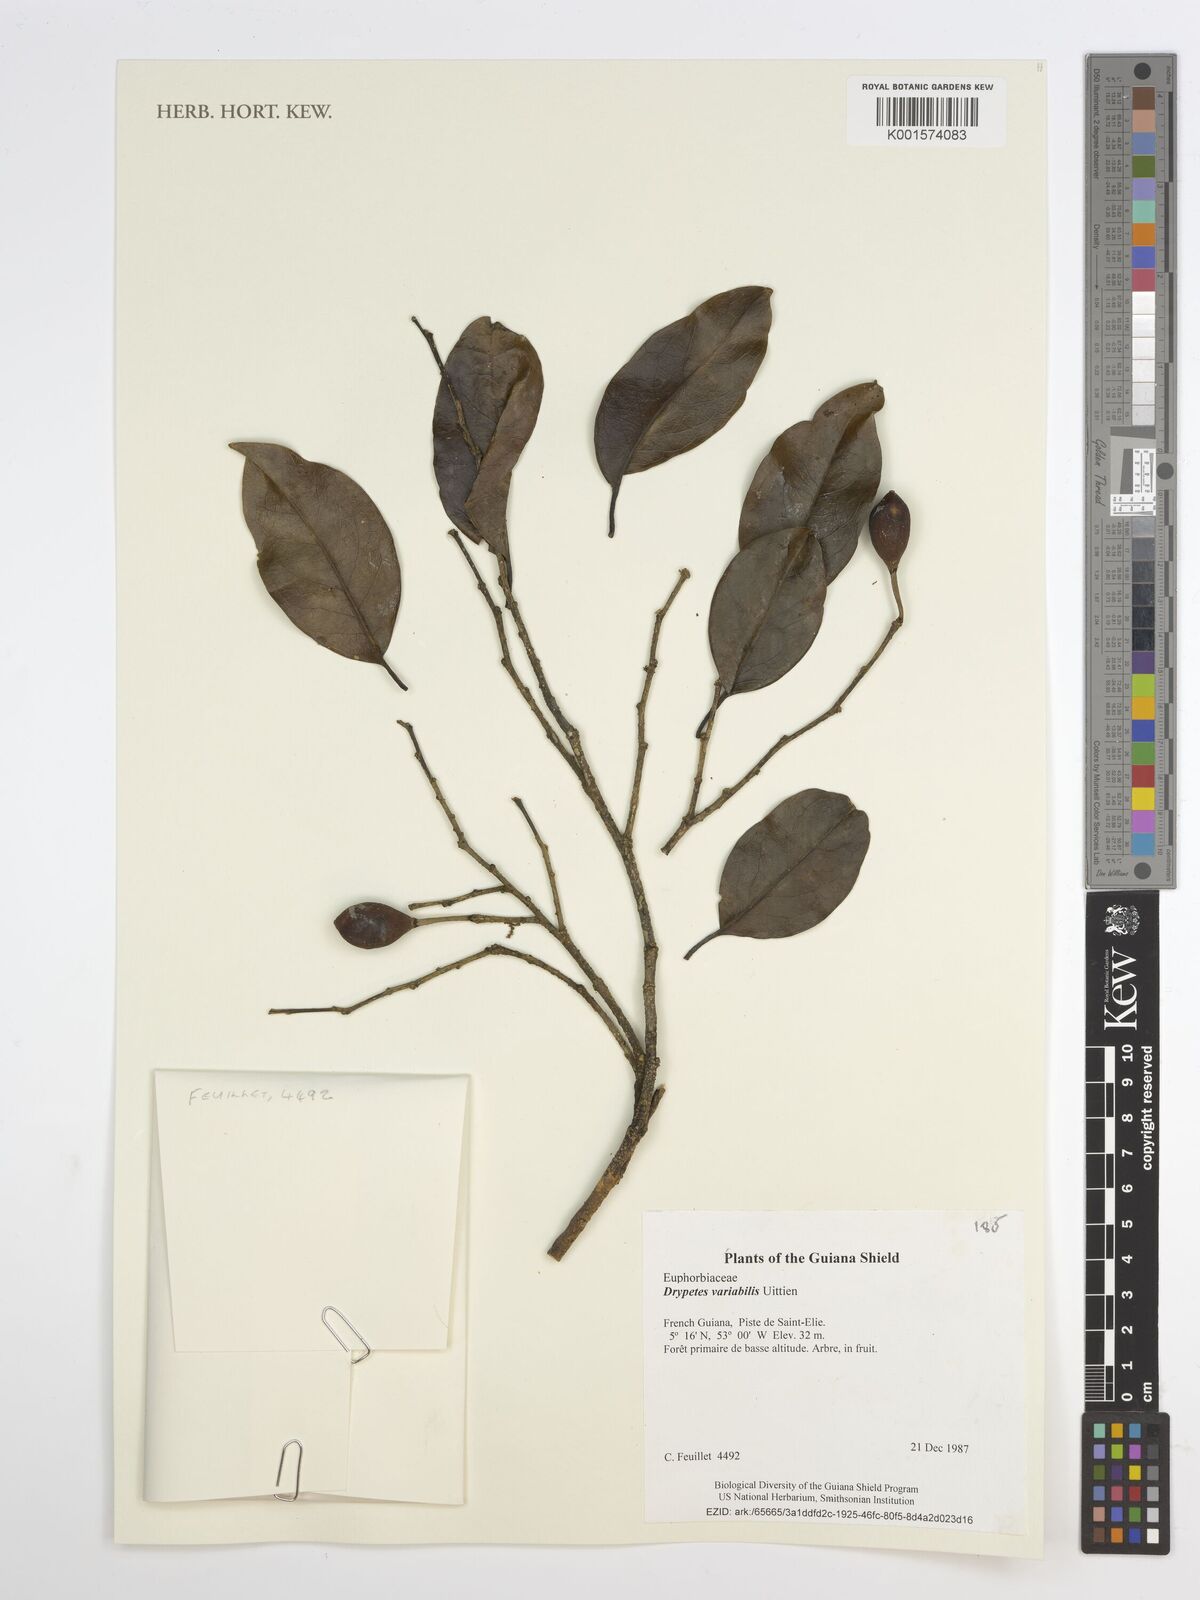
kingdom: Plantae
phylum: Tracheophyta
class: Magnoliopsida
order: Malpighiales
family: Putranjivaceae
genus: Drypetes
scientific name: Drypetes variabilis
